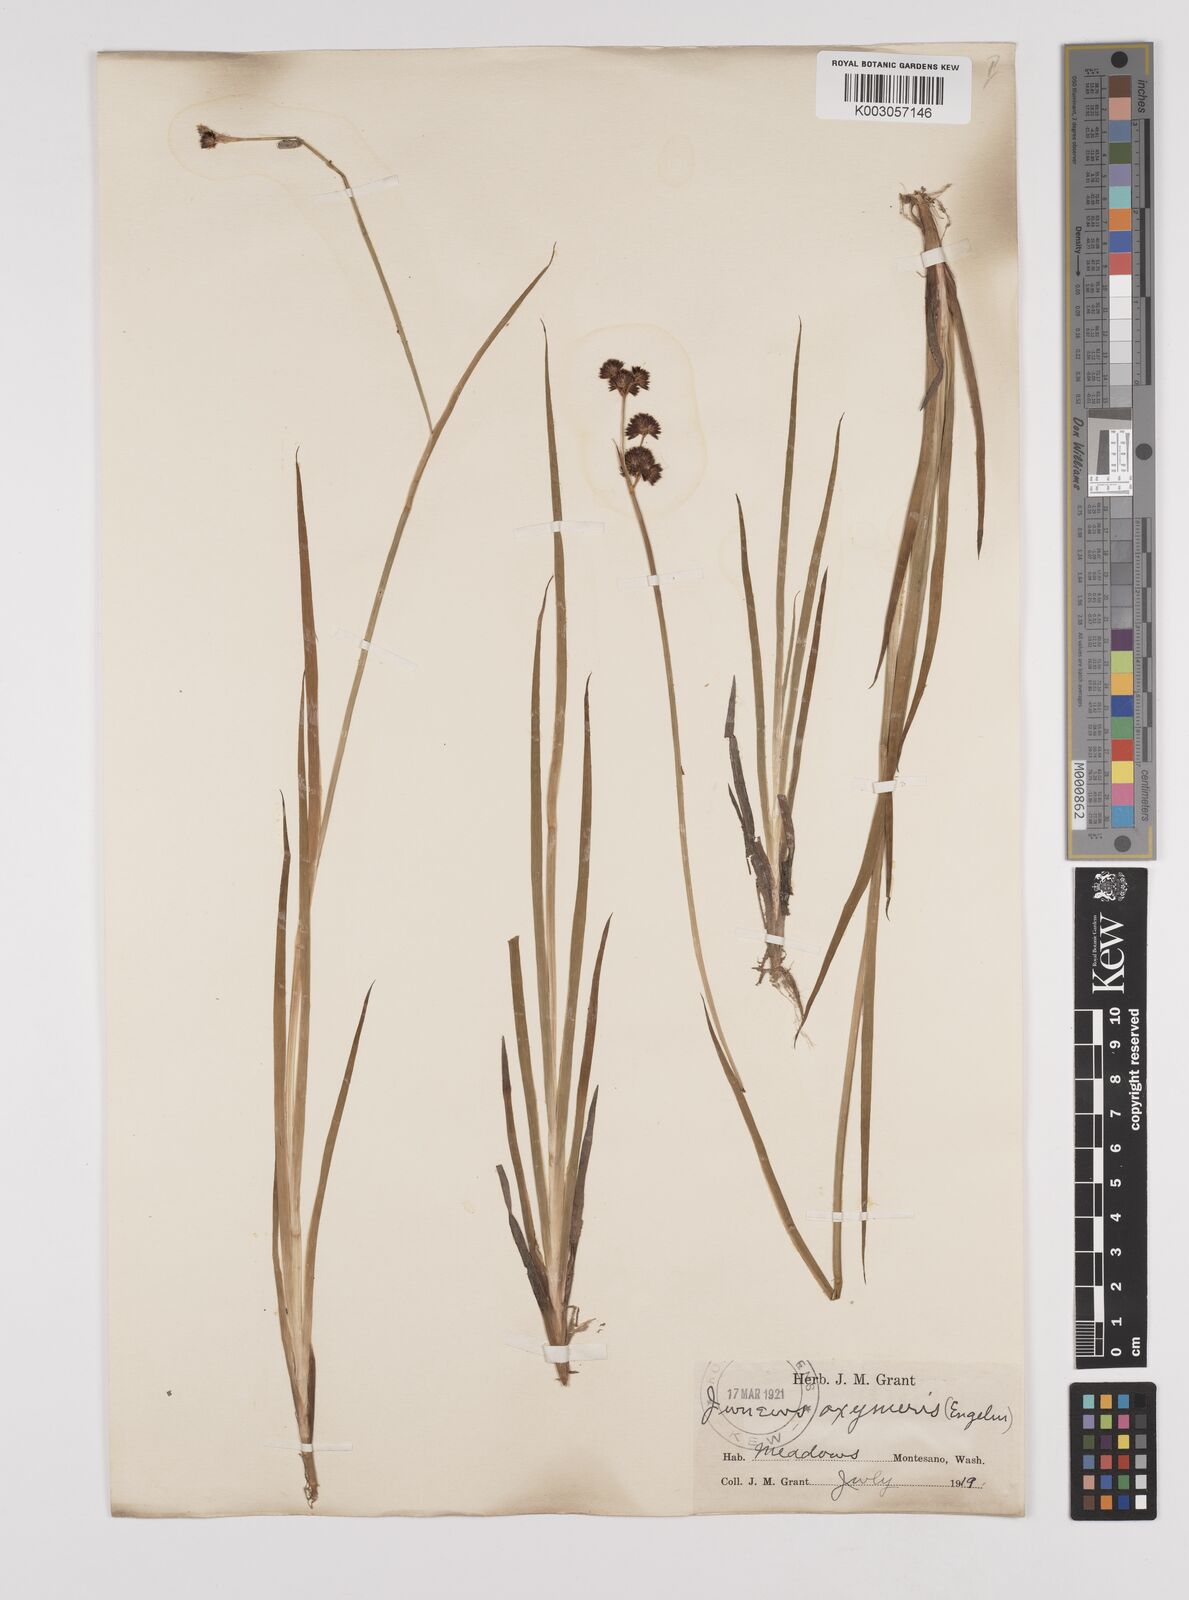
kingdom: Plantae
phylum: Tracheophyta
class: Liliopsida
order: Poales
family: Juncaceae
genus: Juncus
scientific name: Juncus oxymeris
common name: Pointed rush
